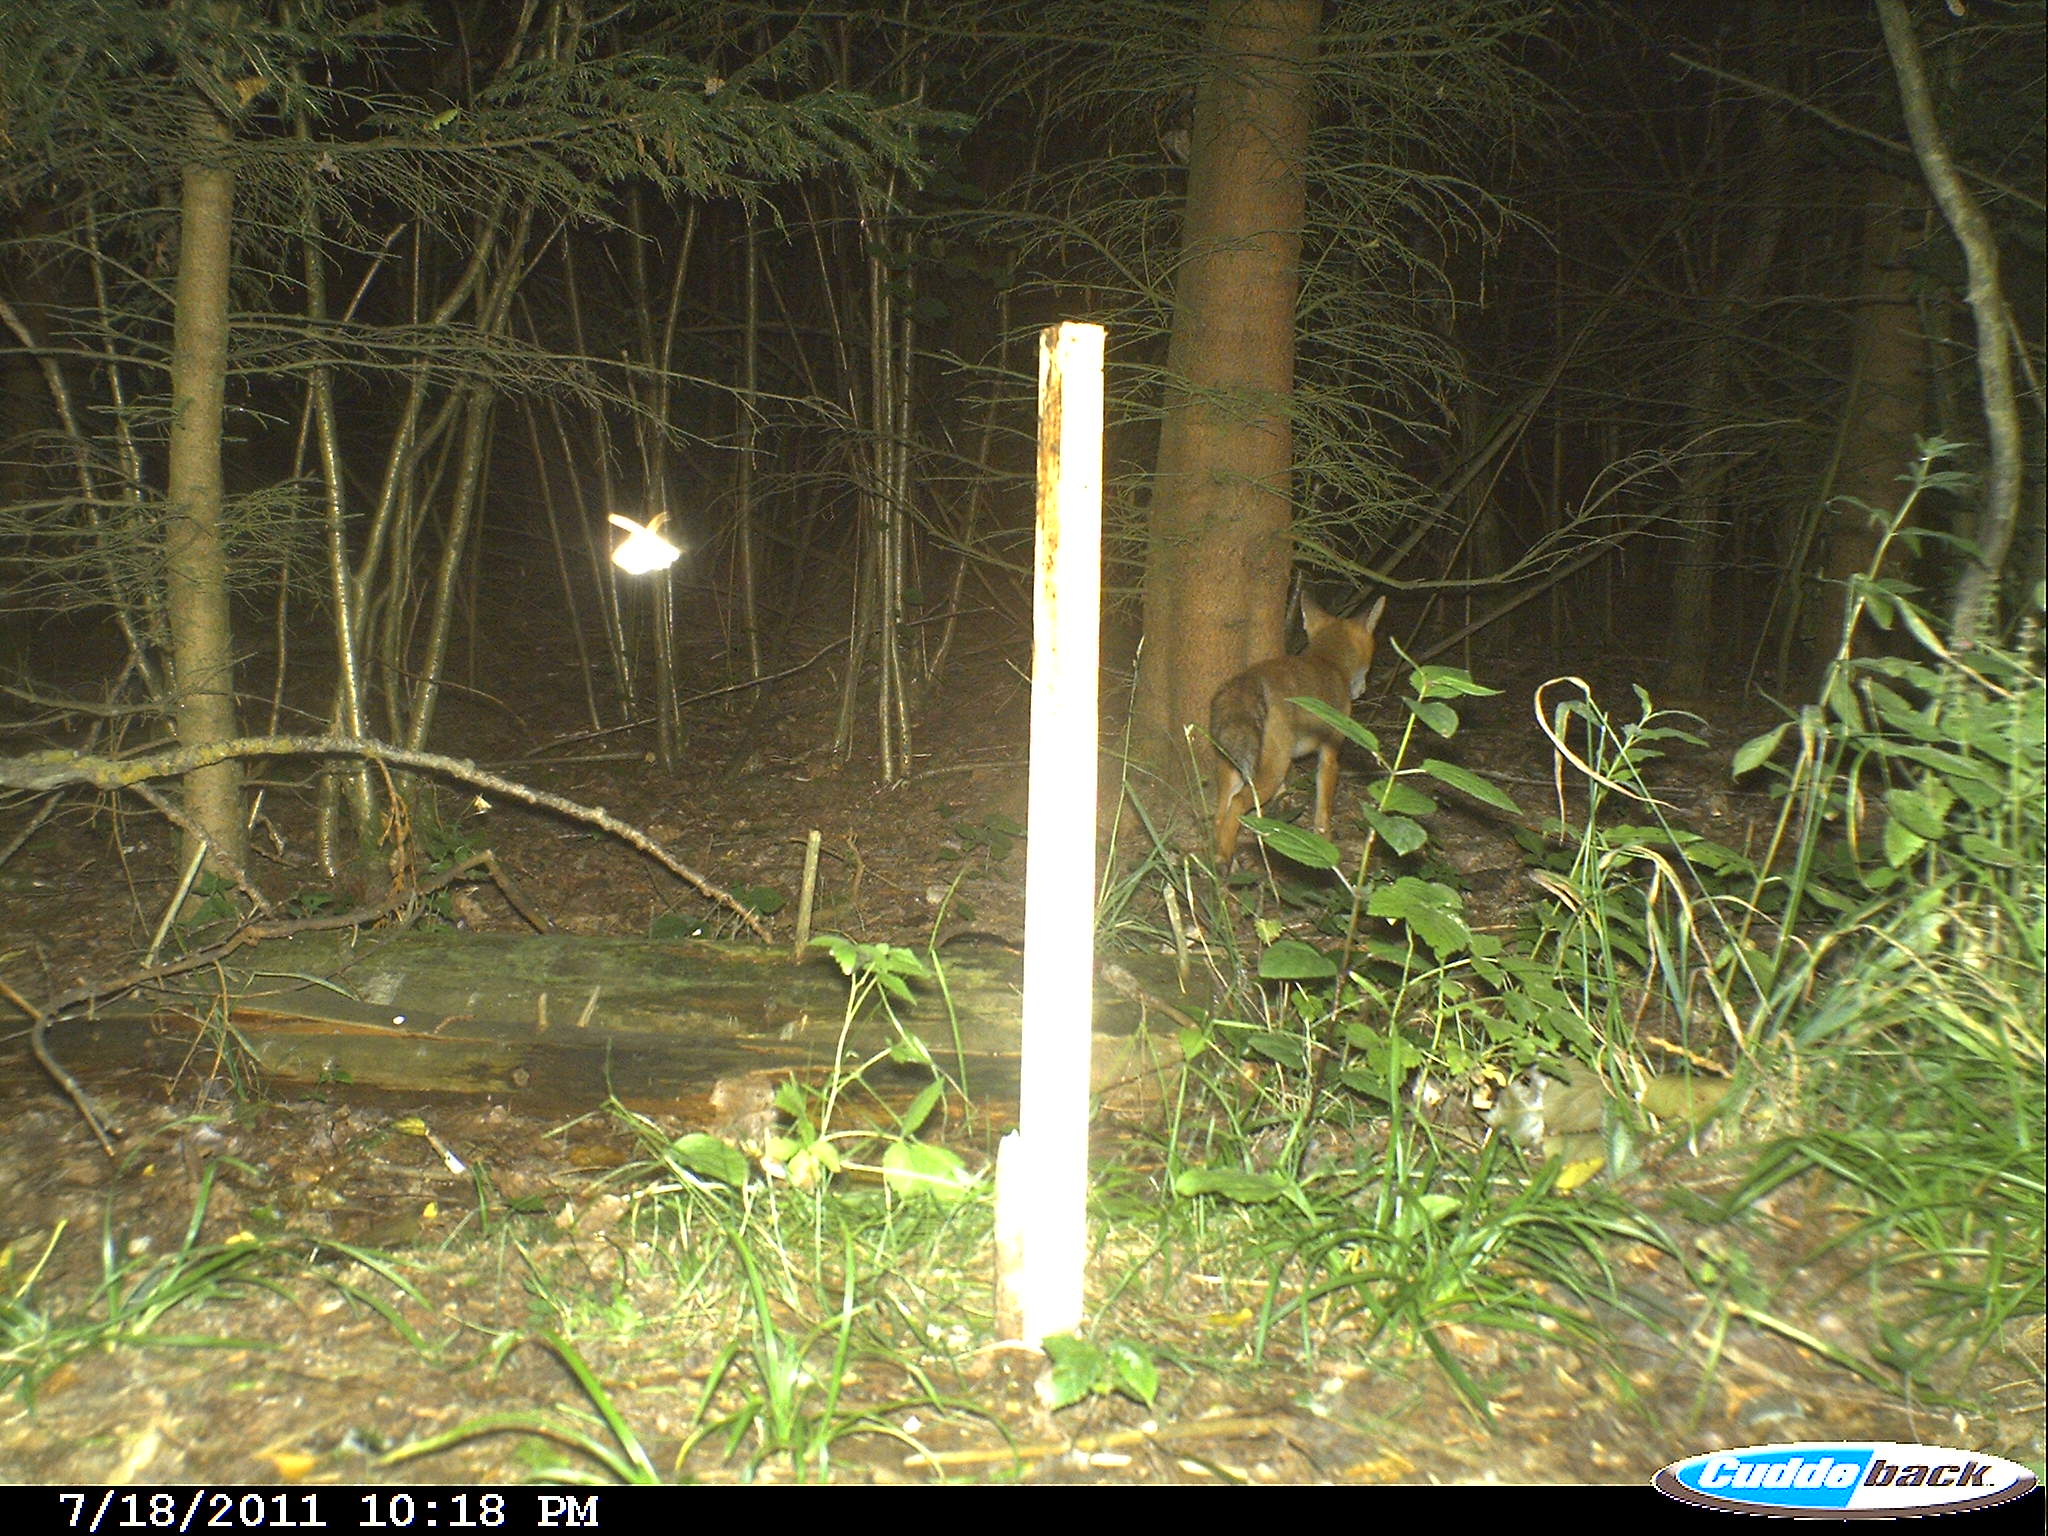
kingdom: Animalia
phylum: Chordata
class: Mammalia
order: Carnivora
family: Canidae
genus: Vulpes
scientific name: Vulpes vulpes
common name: Red fox
